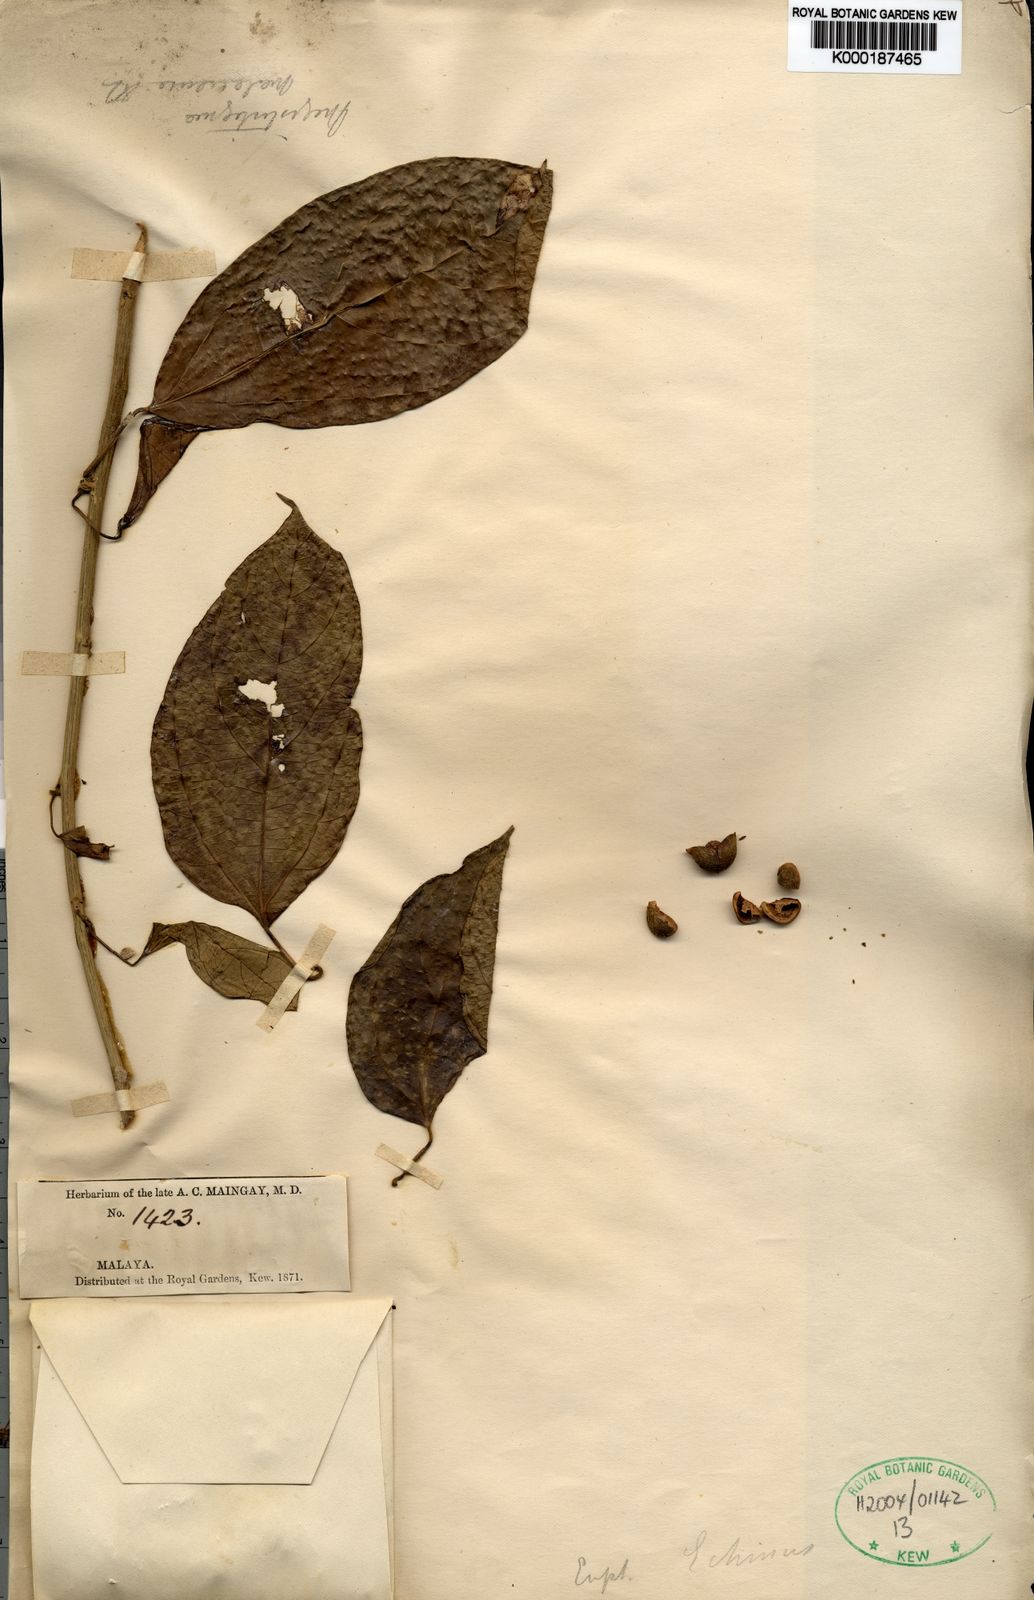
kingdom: Plantae
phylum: Tracheophyta
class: Magnoliopsida
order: Malpighiales
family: Euphorbiaceae
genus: Megistostigma
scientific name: Megistostigma glabratum
